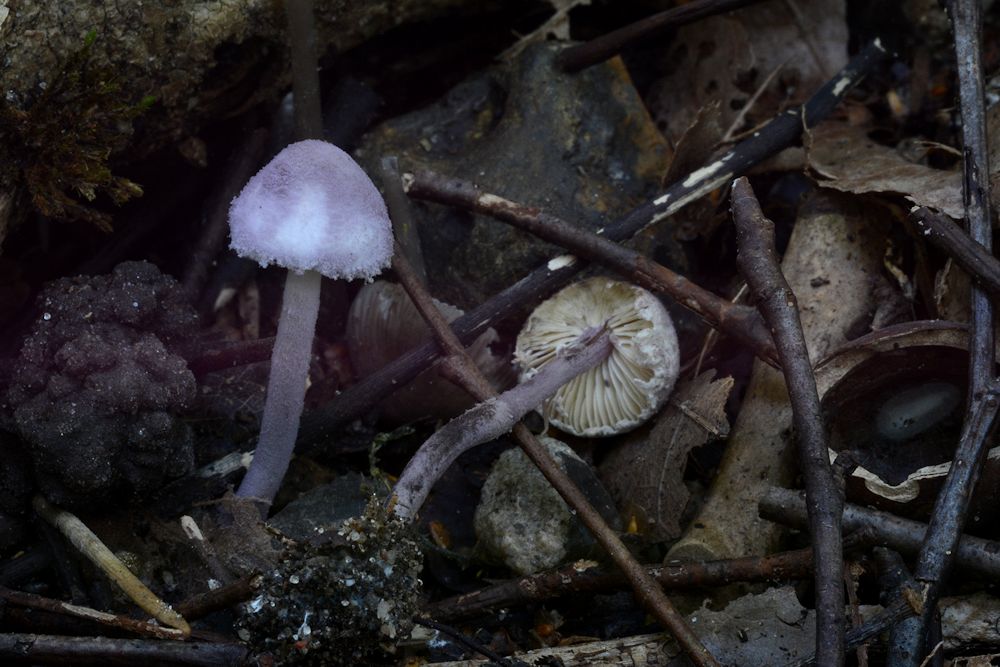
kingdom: Fungi
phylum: Basidiomycota
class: Agaricomycetes
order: Agaricales
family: Agaricaceae
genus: Cystolepiota
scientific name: Cystolepiota bucknallii
